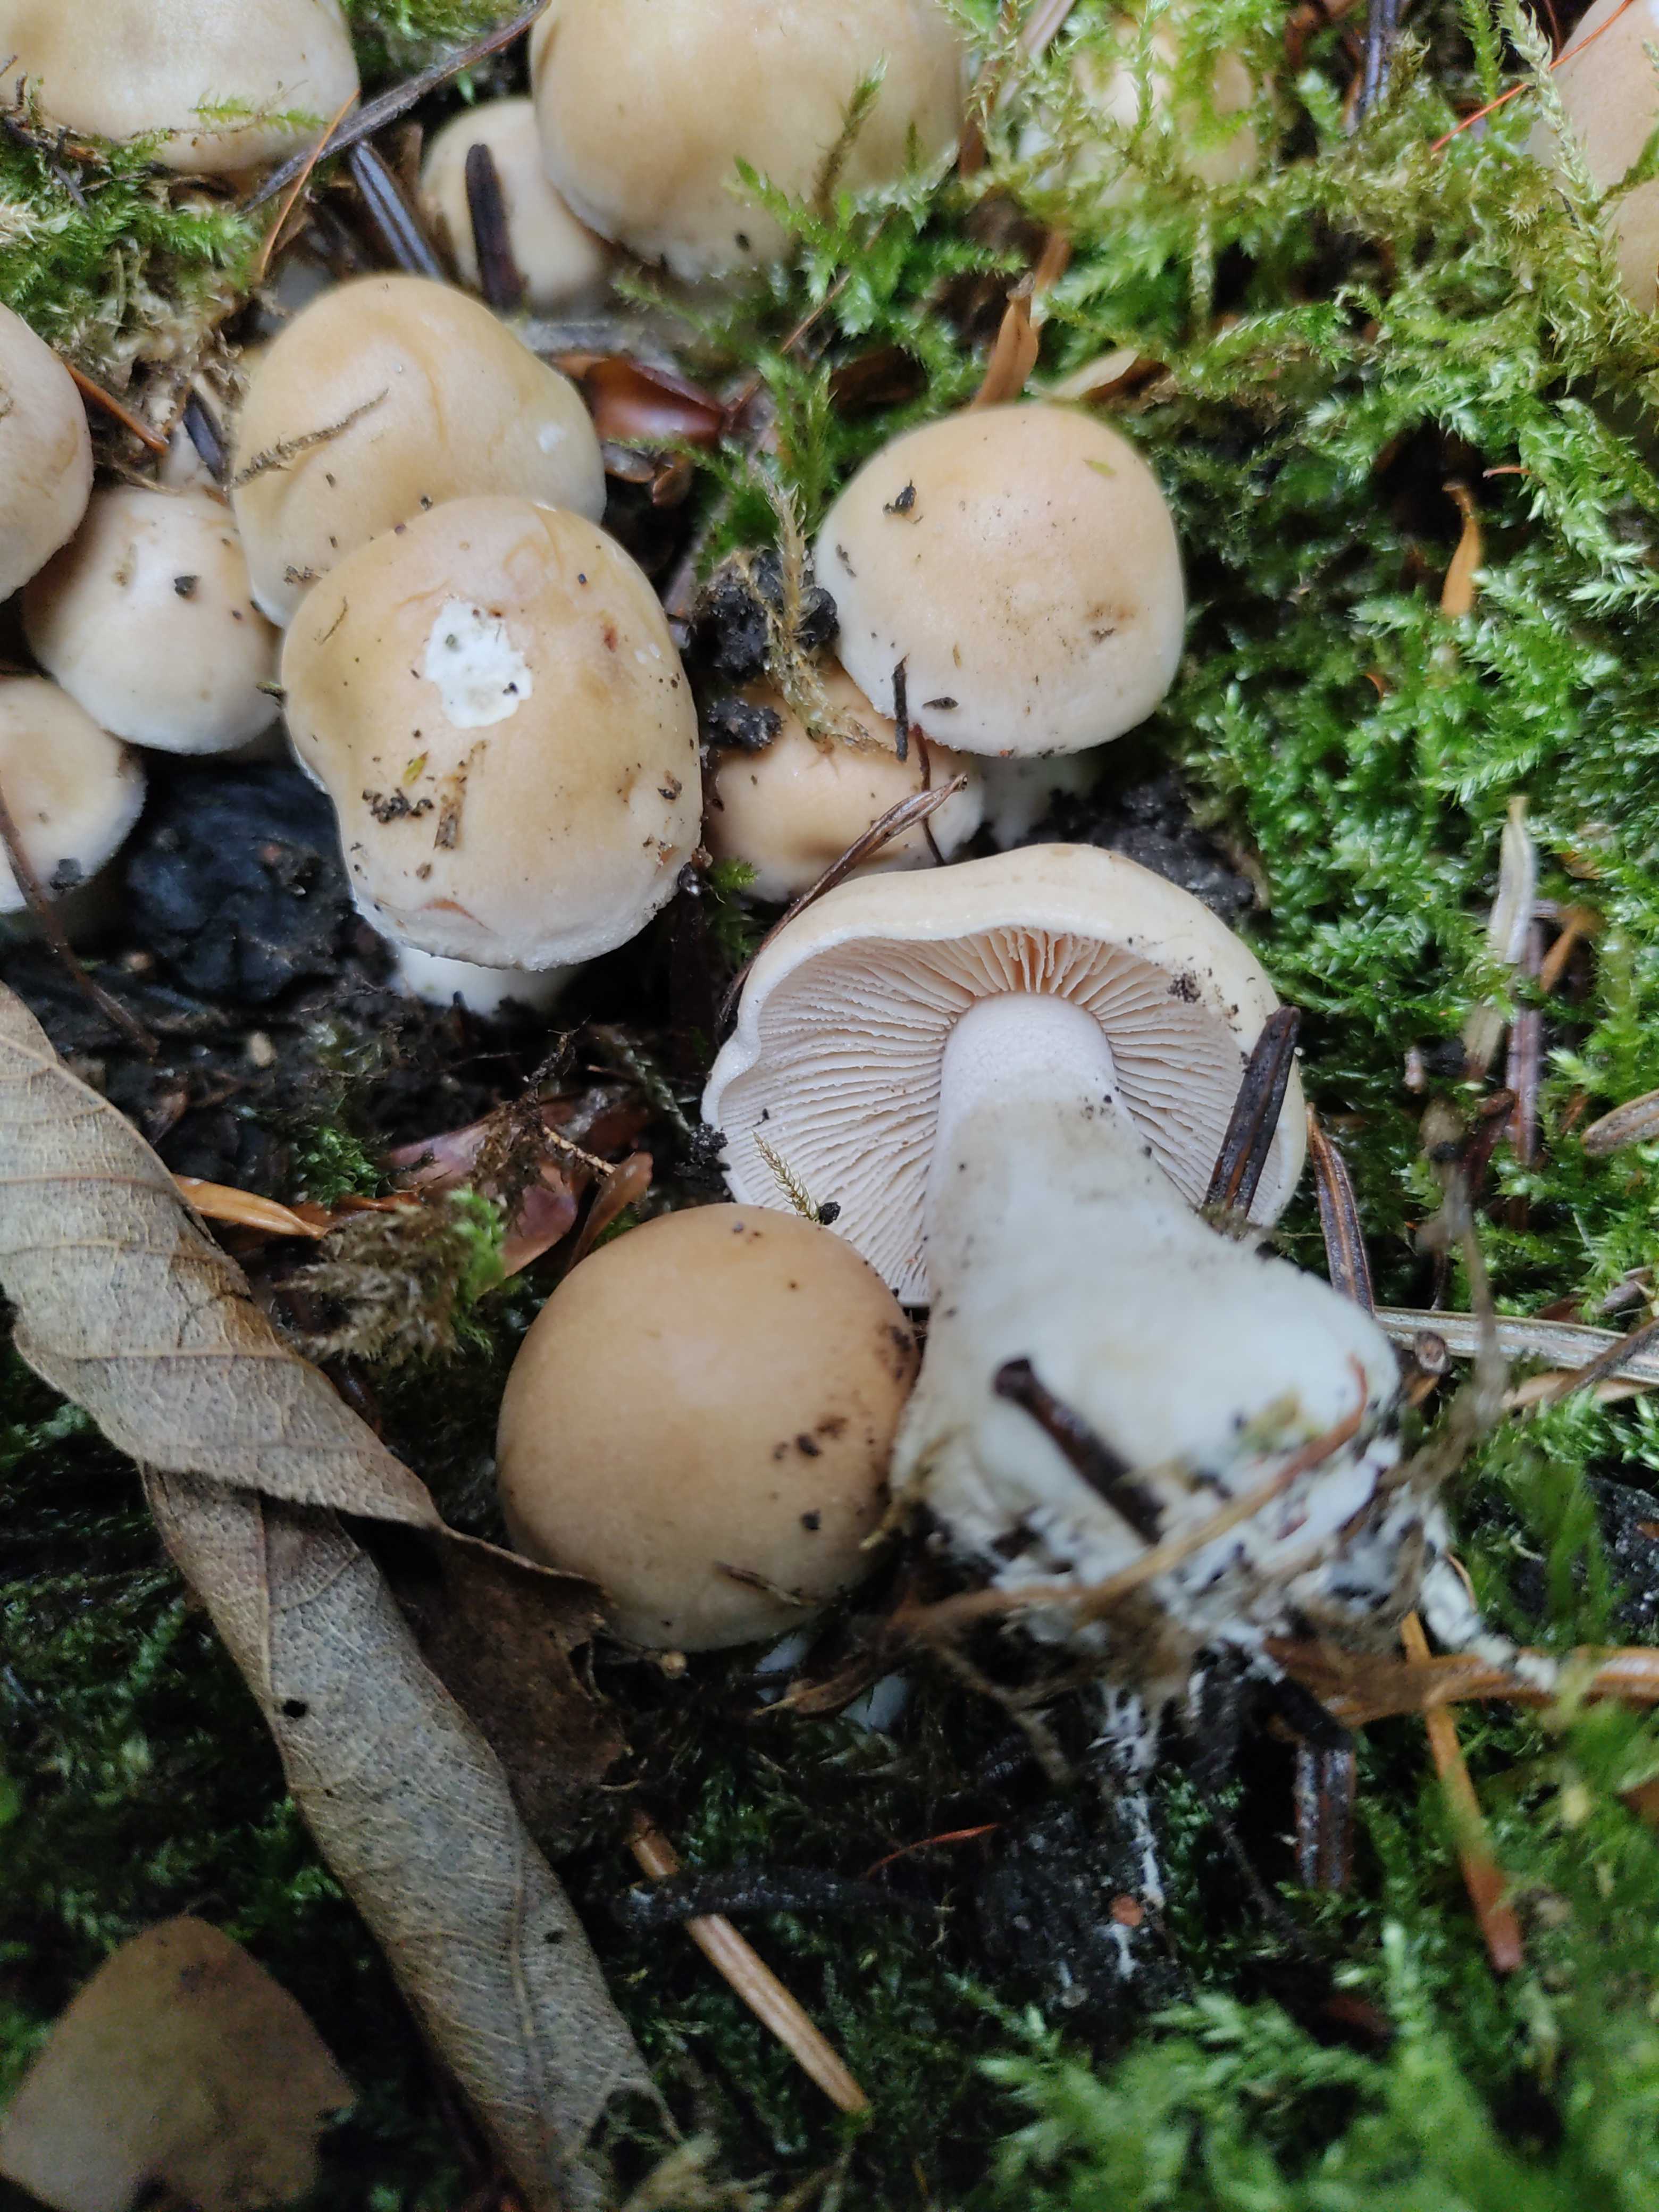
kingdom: Fungi
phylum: Basidiomycota
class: Agaricomycetes
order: Agaricales
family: Hymenogastraceae
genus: Hebeloma
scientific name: Hebeloma
